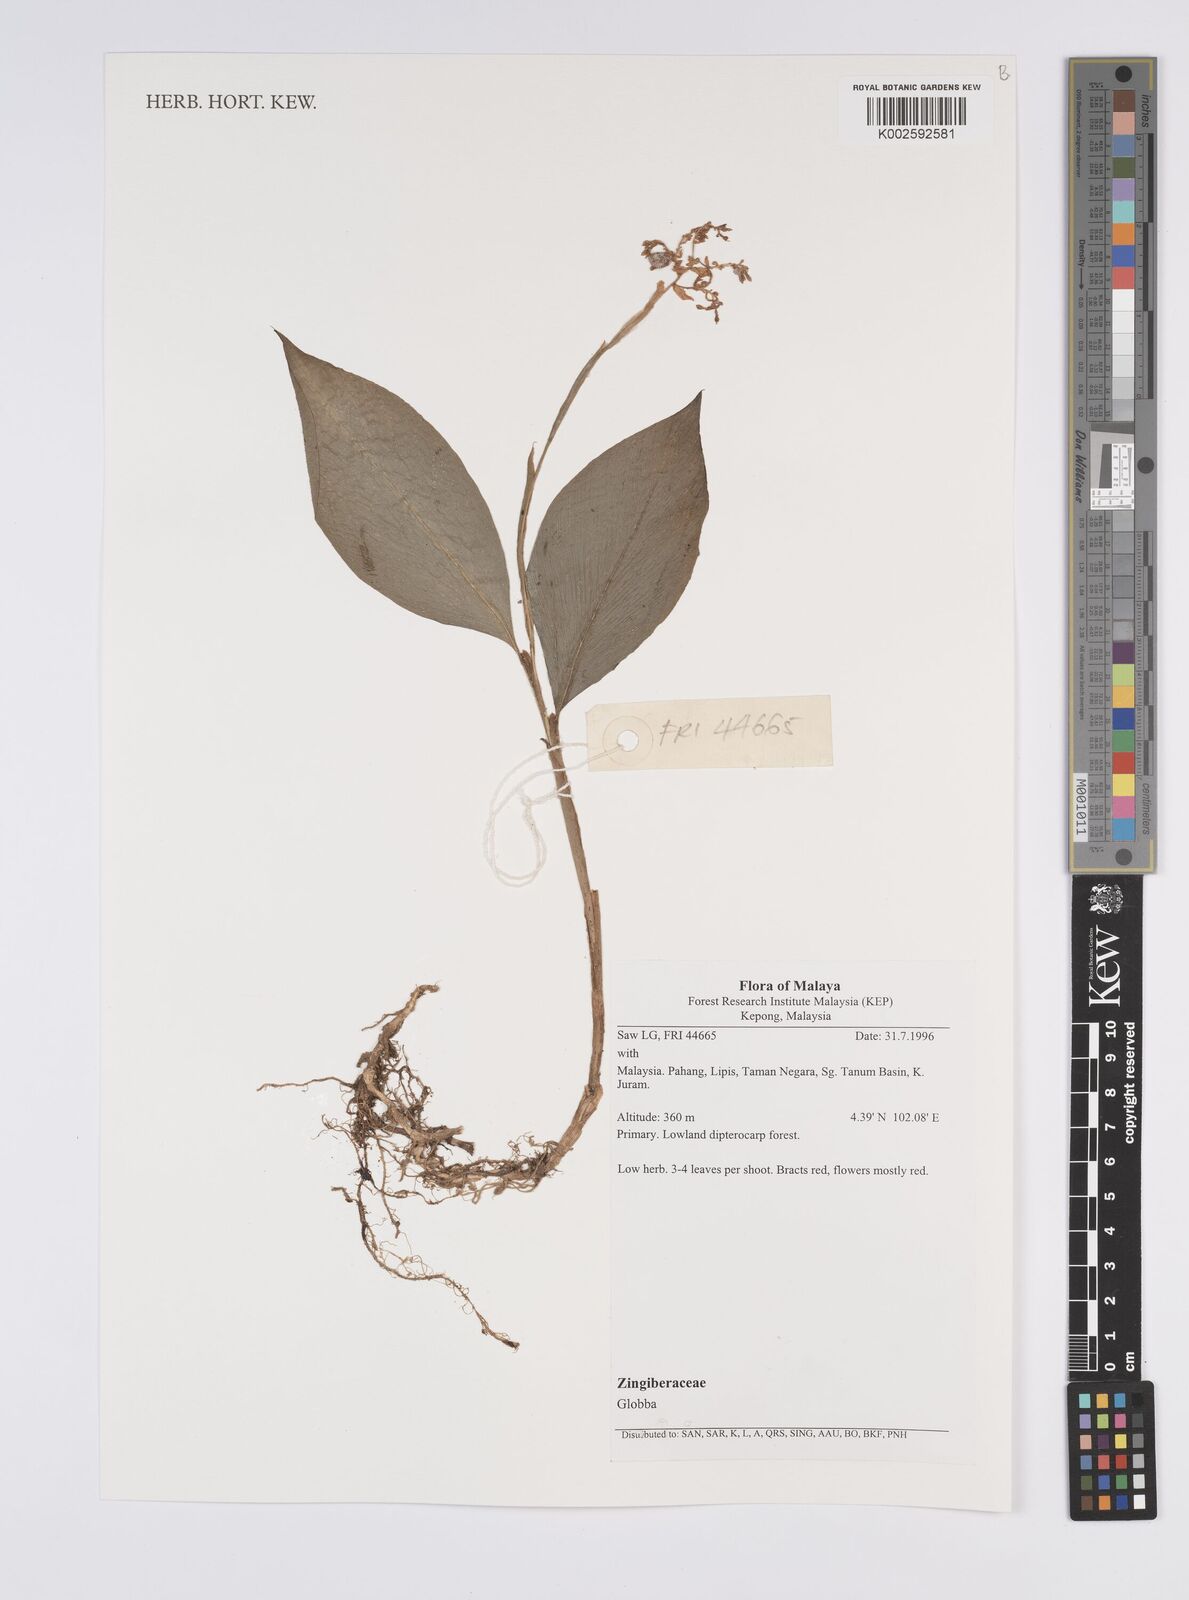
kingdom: Plantae
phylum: Tracheophyta
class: Liliopsida
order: Zingiberales
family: Zingiberaceae
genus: Globba
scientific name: Globba
